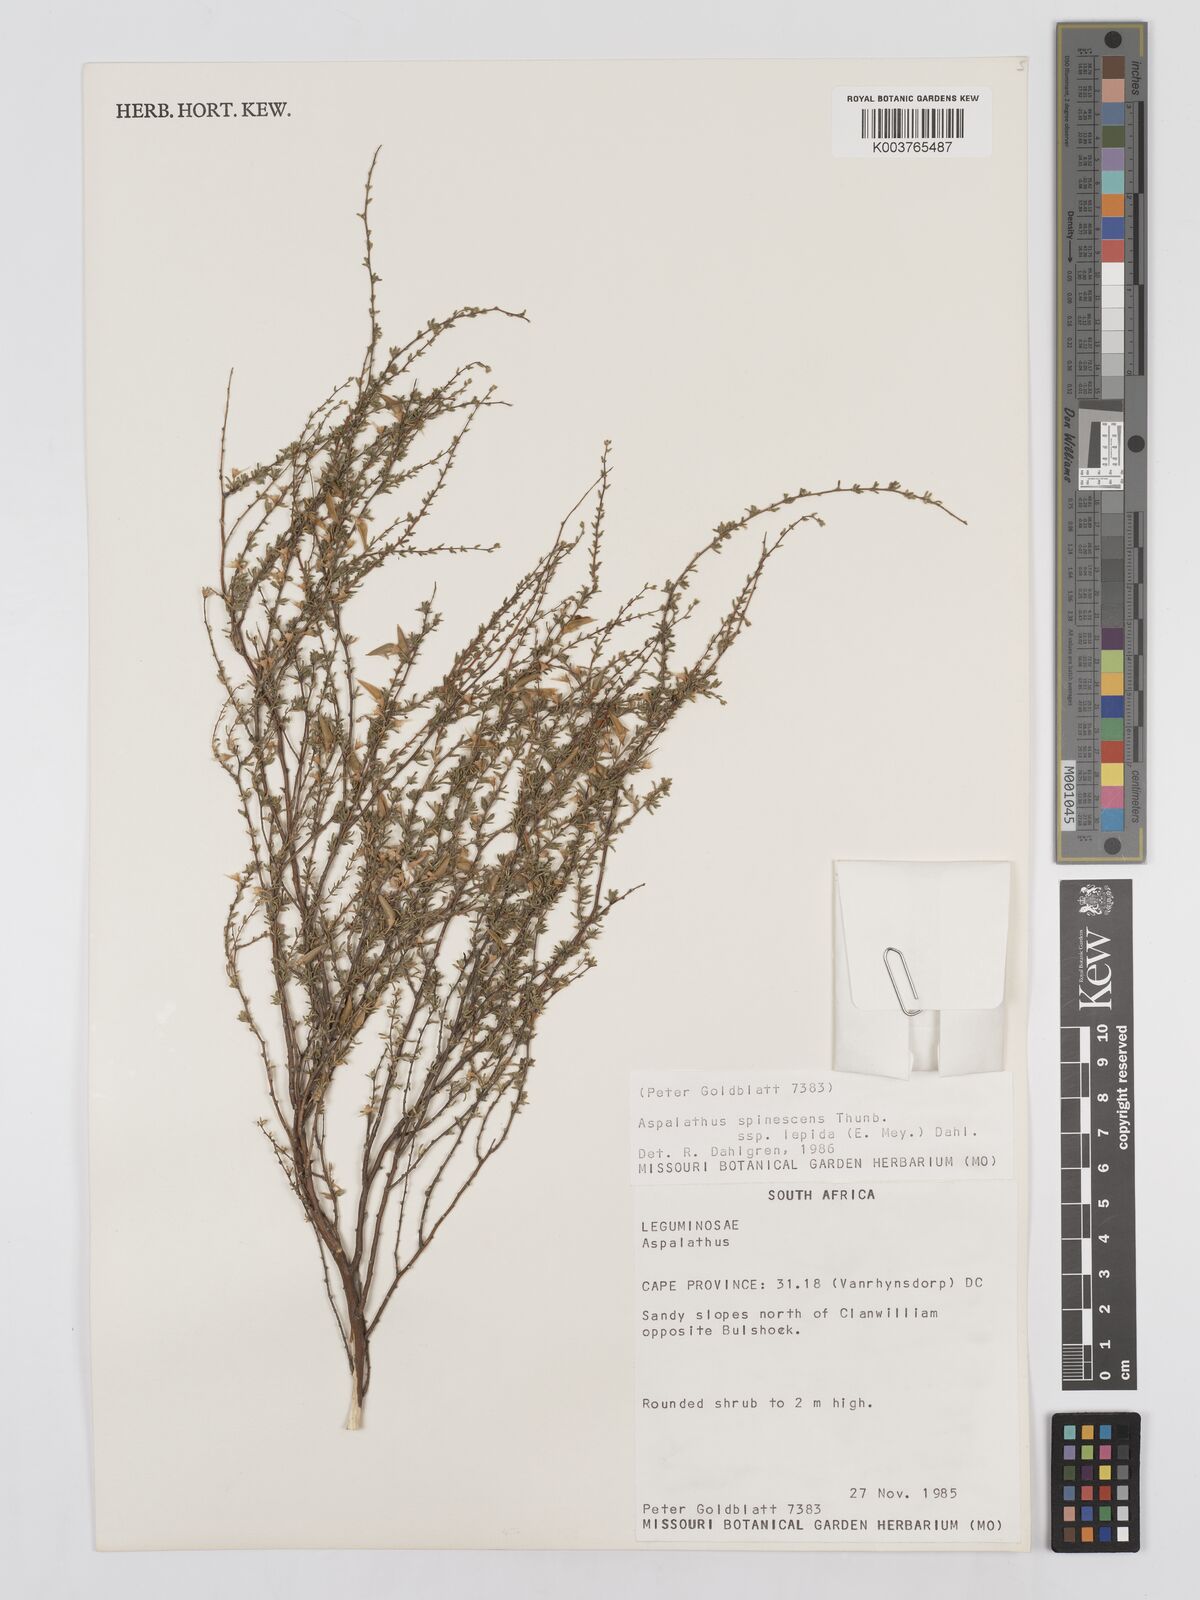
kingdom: Plantae
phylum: Tracheophyta
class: Magnoliopsida
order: Fabales
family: Fabaceae
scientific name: Fabaceae
